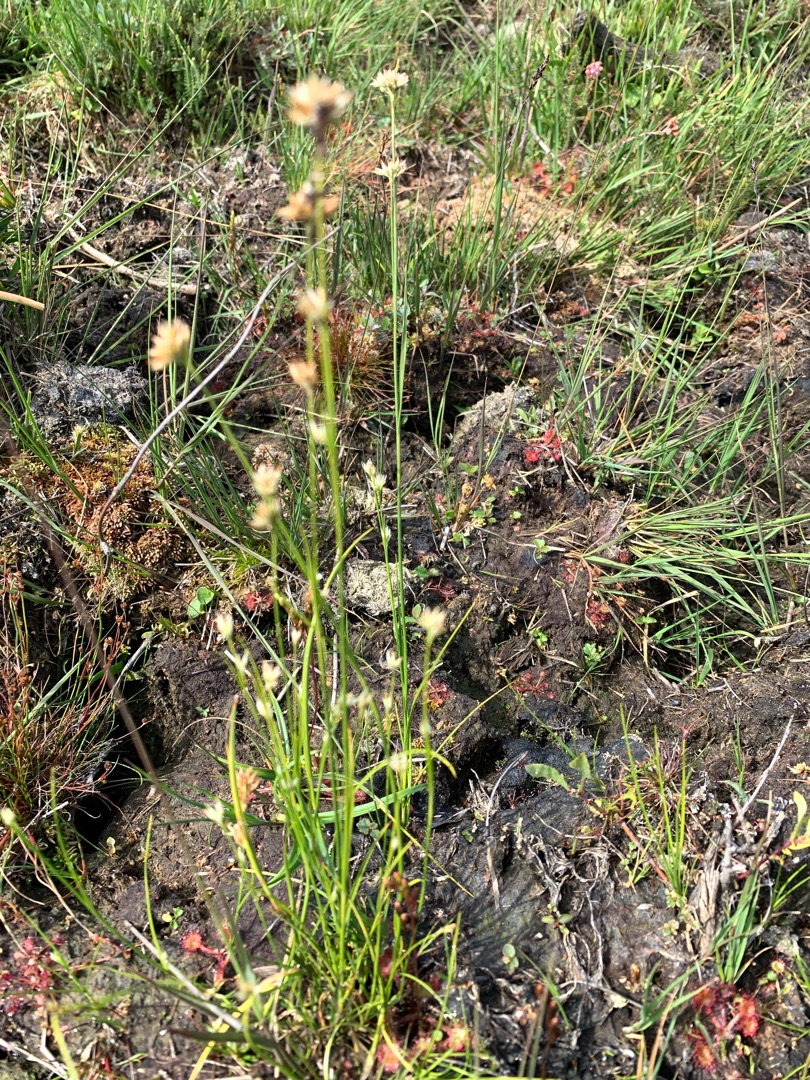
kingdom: Plantae
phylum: Tracheophyta
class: Liliopsida
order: Poales
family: Cyperaceae
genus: Rhynchospora
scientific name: Rhynchospora alba
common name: Hvid næbfrø
